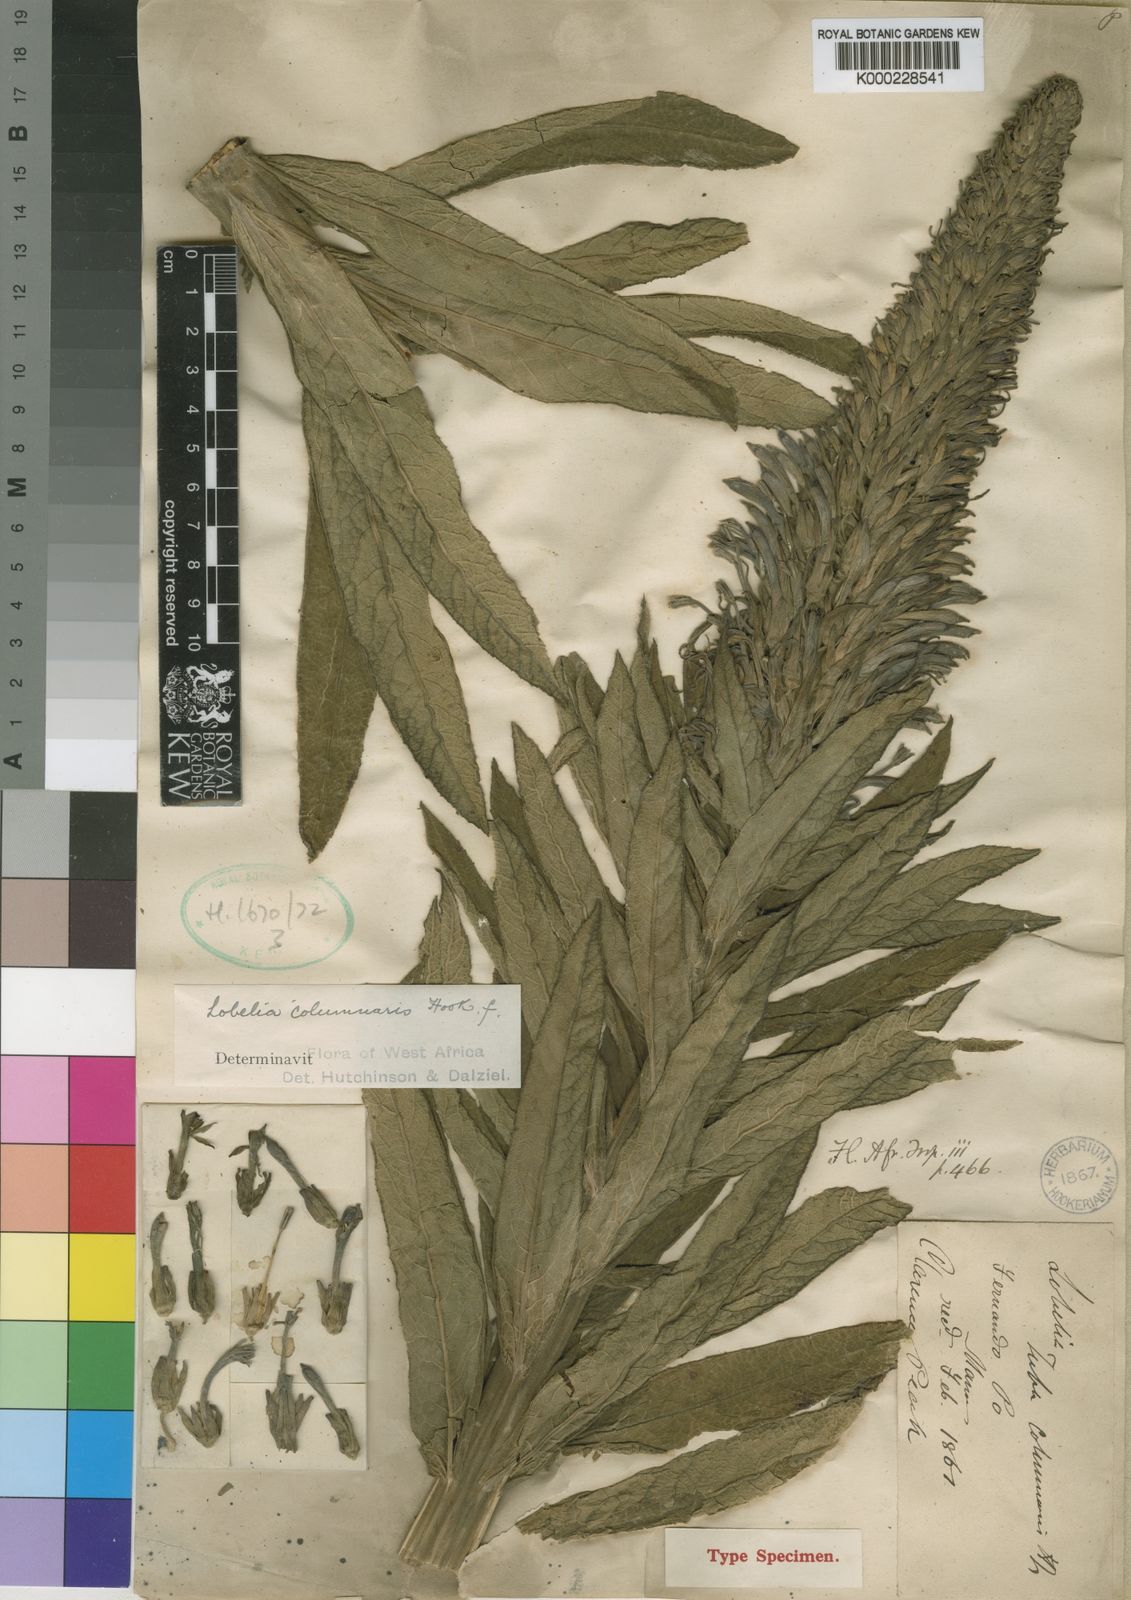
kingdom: Plantae
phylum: Tracheophyta
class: Magnoliopsida
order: Asterales
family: Campanulaceae
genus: Lobelia
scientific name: Lobelia columnaris
